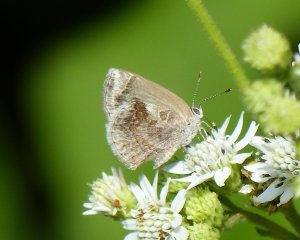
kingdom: Animalia
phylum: Arthropoda
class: Insecta
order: Lepidoptera
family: Lycaenidae
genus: Strymon
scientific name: Strymon bazochii
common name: Lantana Scrub-Hairstreak
